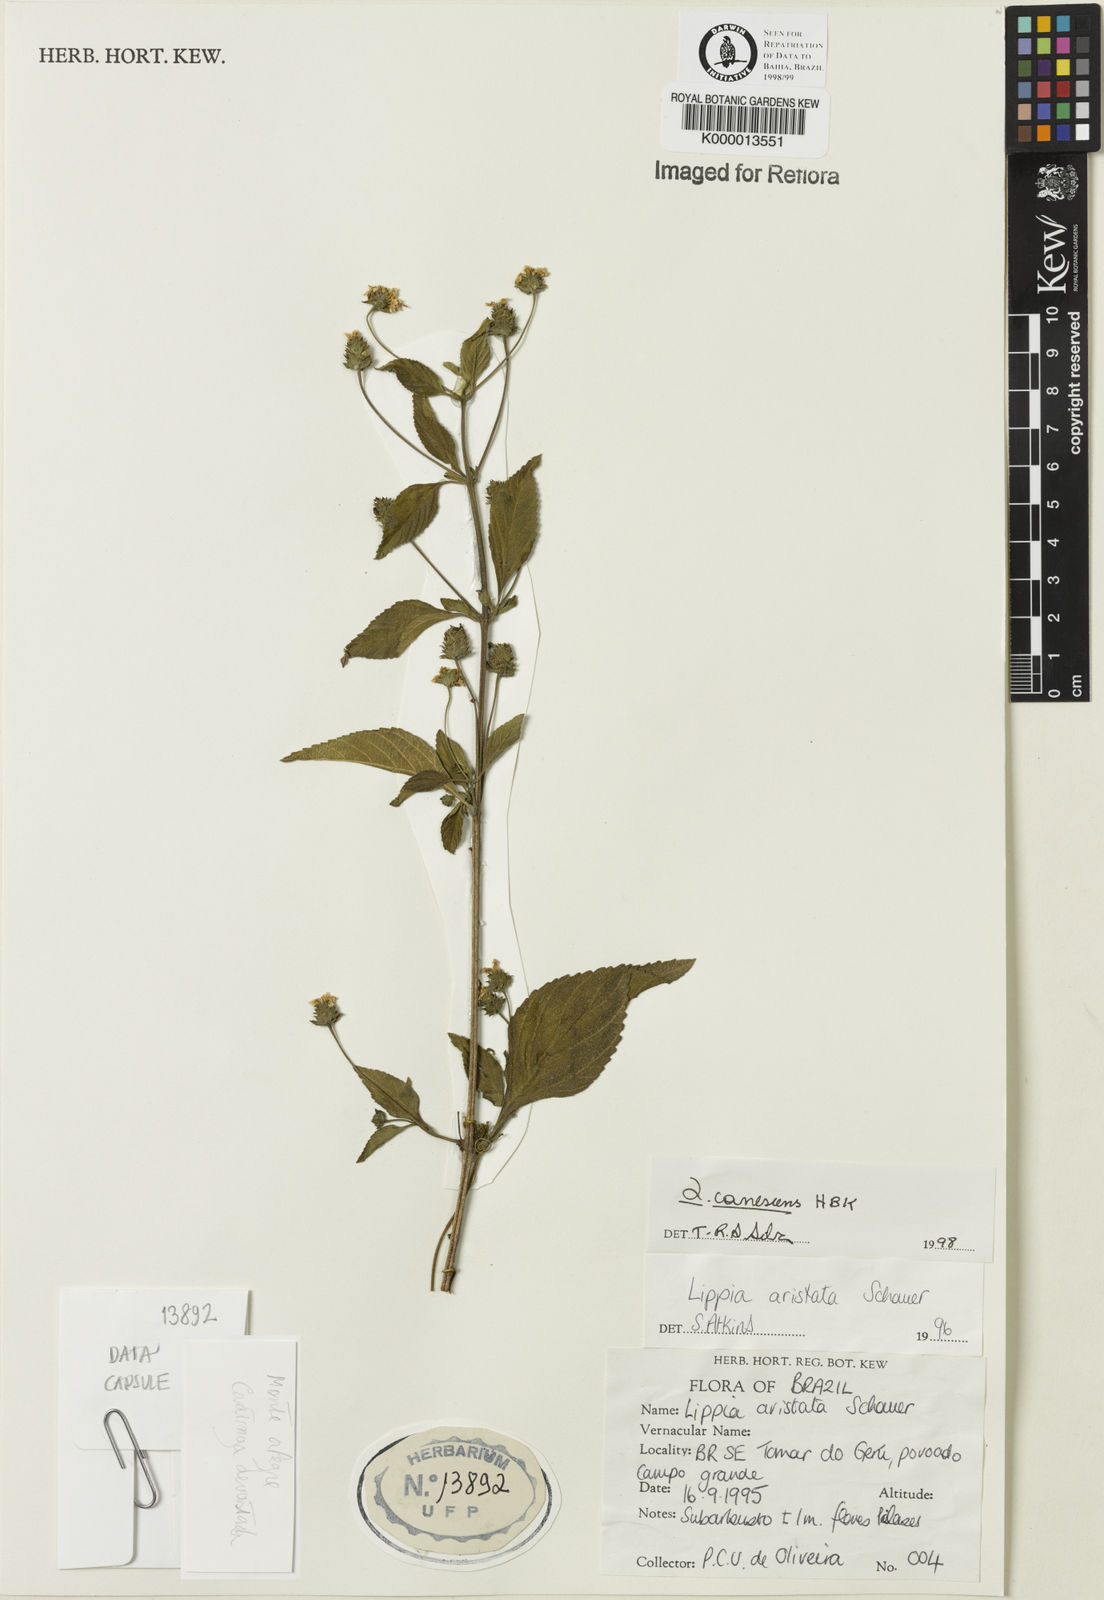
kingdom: Plantae
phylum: Tracheophyta
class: Magnoliopsida
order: Lamiales
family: Verbenaceae
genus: Lantana
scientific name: Lantana canescens
